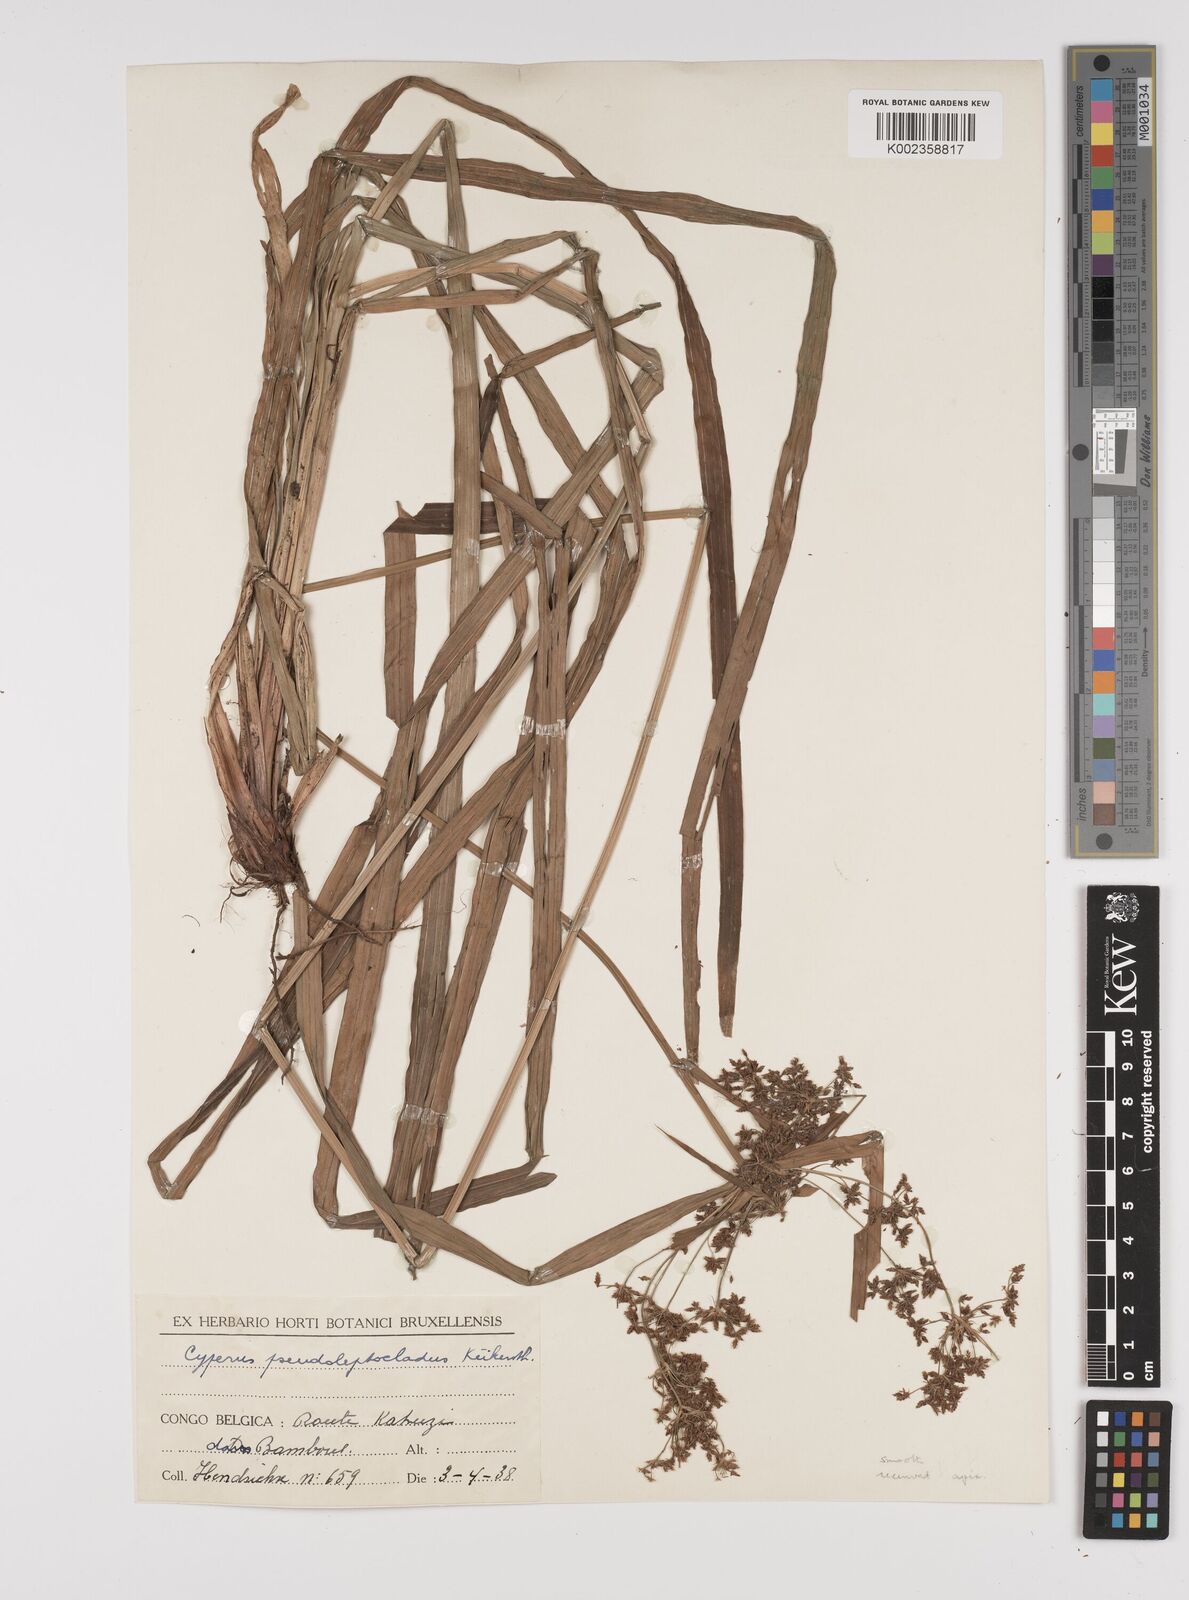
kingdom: Plantae
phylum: Tracheophyta
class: Liliopsida
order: Poales
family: Cyperaceae
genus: Cyperus
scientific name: Cyperus glaucophyllus
